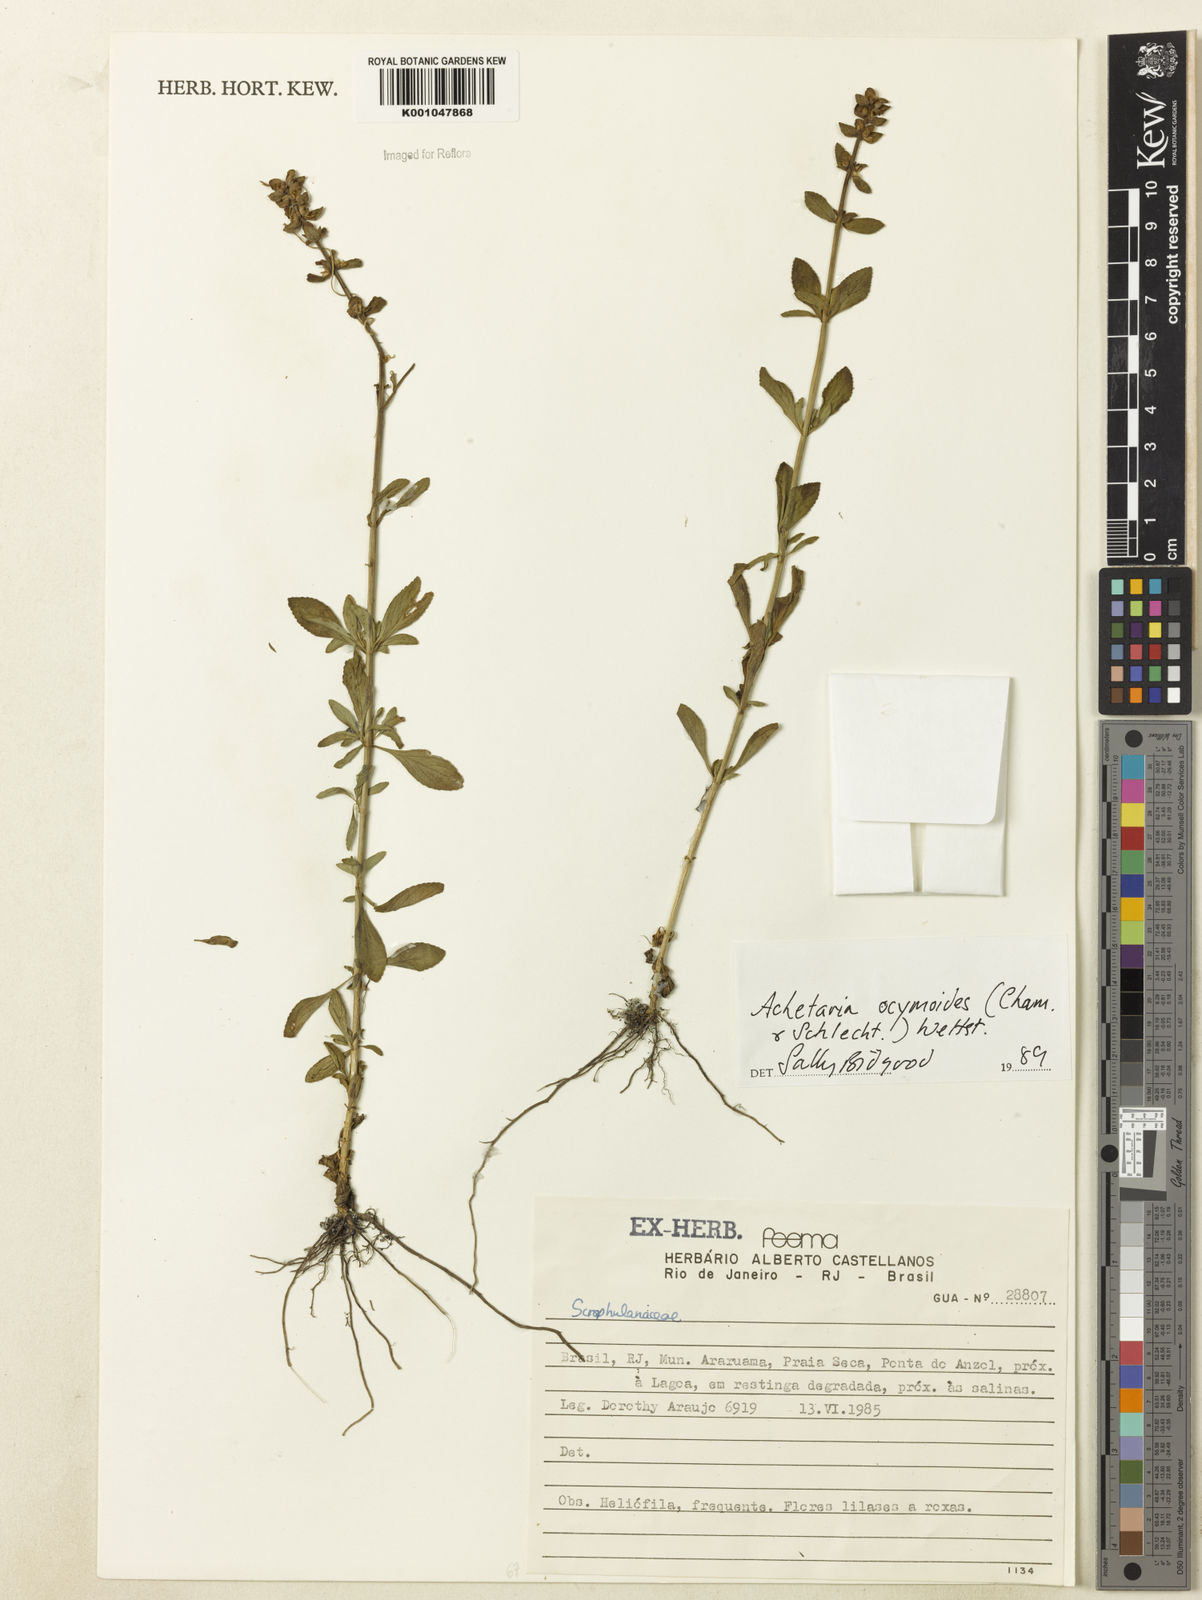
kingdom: Plantae
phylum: Tracheophyta
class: Magnoliopsida
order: Lamiales
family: Plantaginaceae
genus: Matourea
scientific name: Matourea ocymoides
